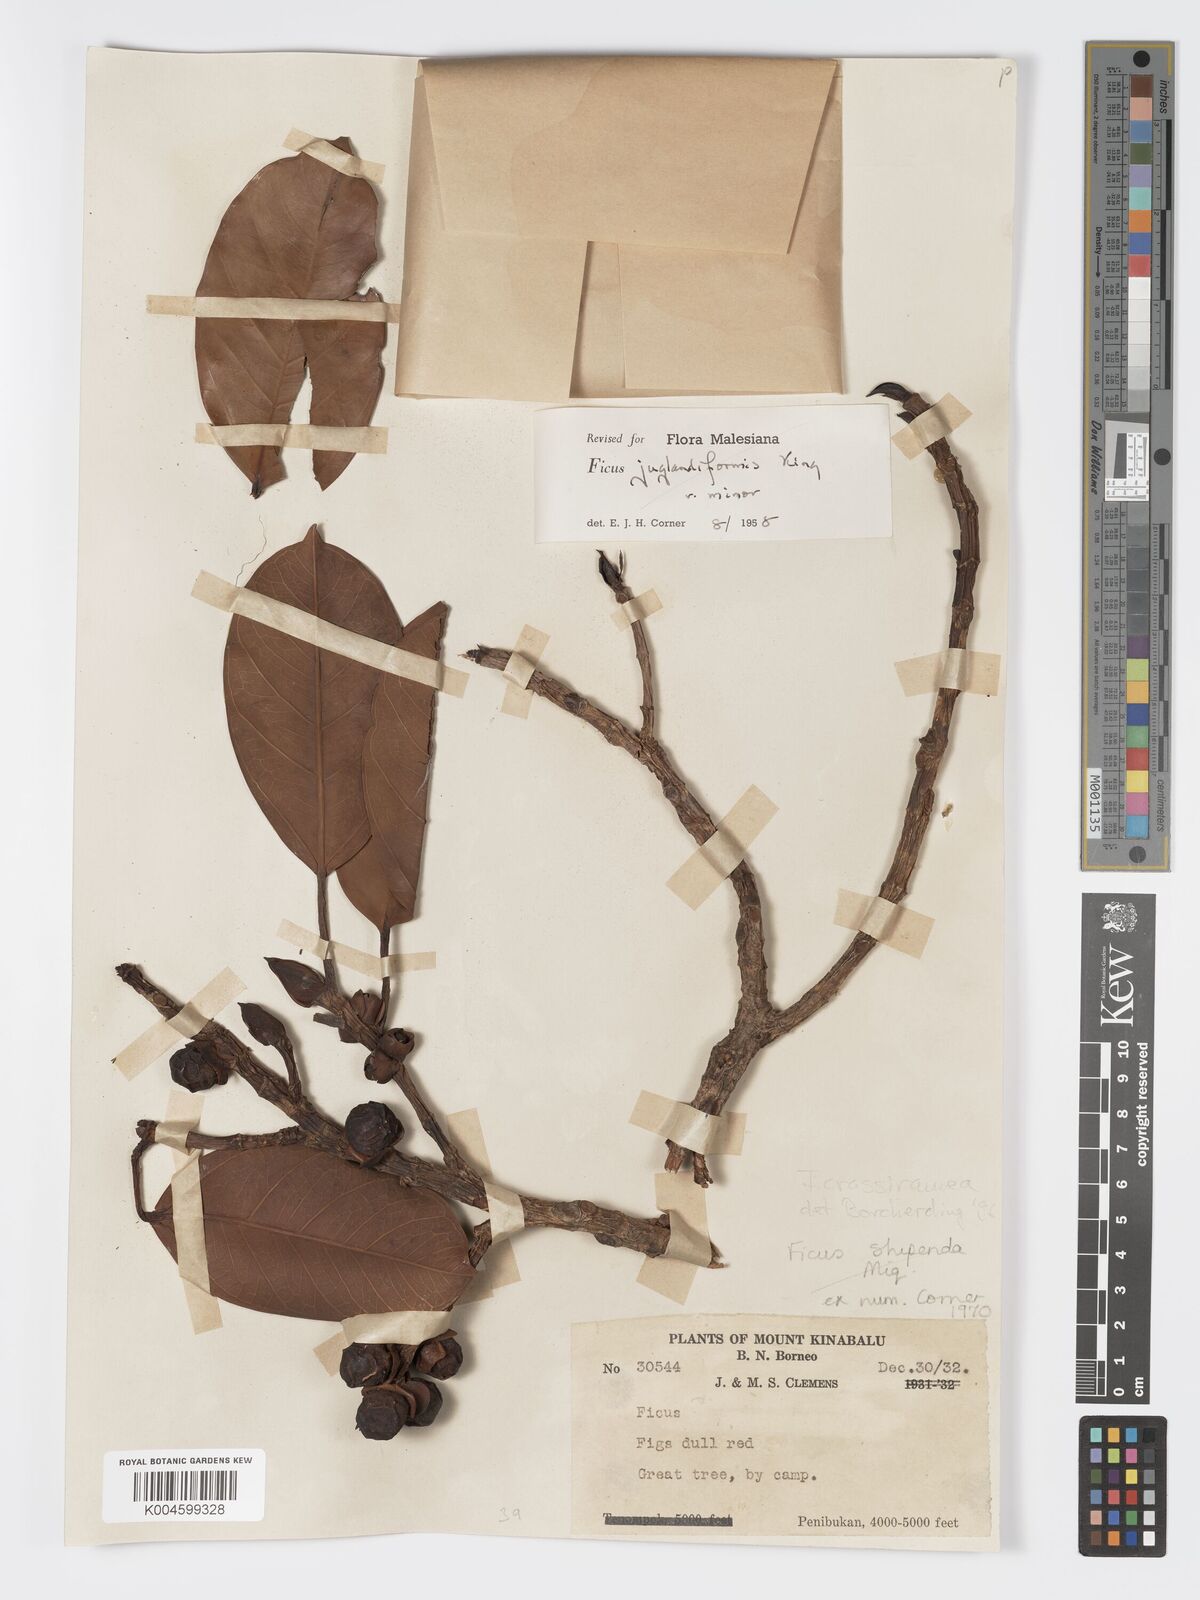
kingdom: Plantae
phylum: Tracheophyta
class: Magnoliopsida
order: Rosales
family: Moraceae
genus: Ficus
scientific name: Ficus crassiramea
